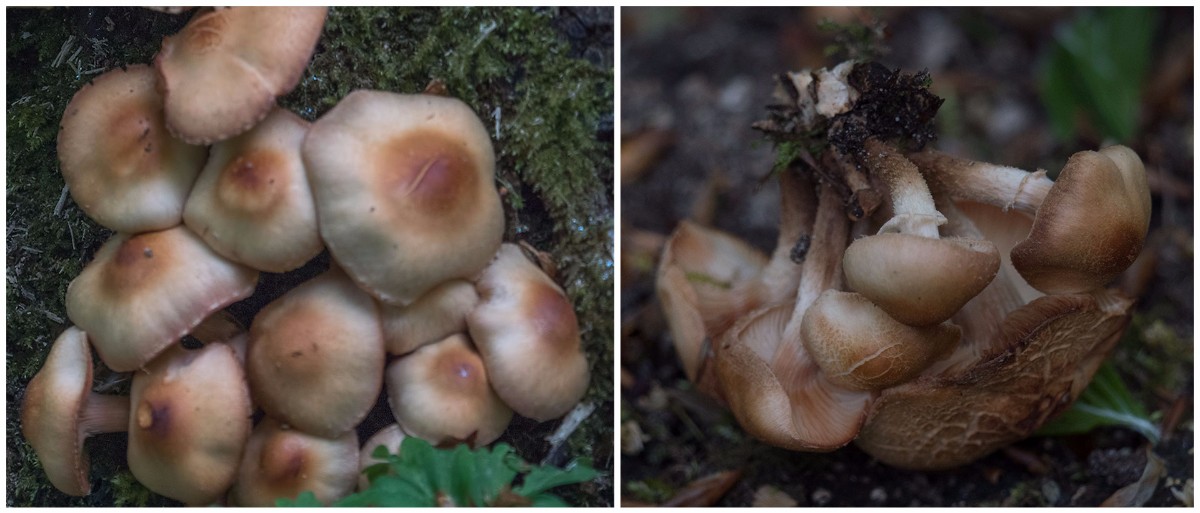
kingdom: Fungi
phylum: Basidiomycota
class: Agaricomycetes
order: Agaricales
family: Strophariaceae
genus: Kuehneromyces
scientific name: Kuehneromyces mutabilis
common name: foranderlig skælhat
